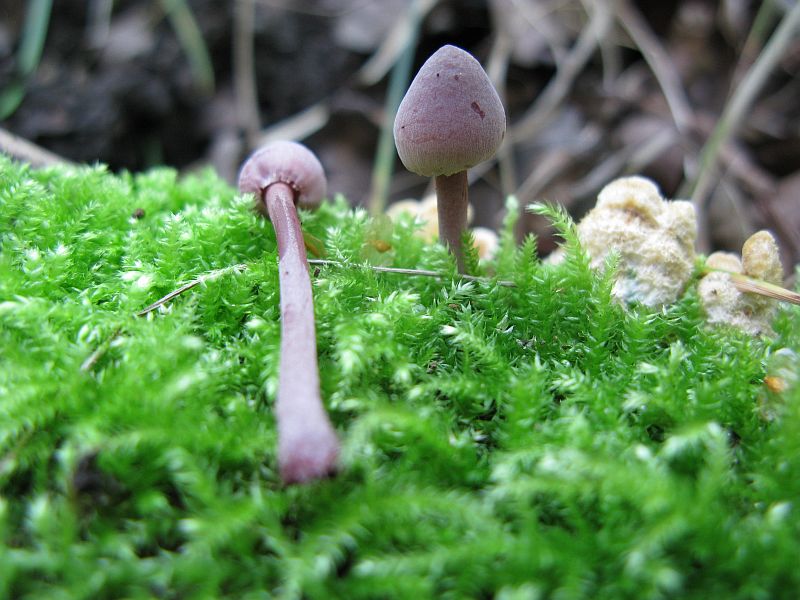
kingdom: Fungi
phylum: Basidiomycota
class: Agaricomycetes
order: Agaricales
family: Mycenaceae
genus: Mycena
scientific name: Mycena haematopus
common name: blødende huesvamp
